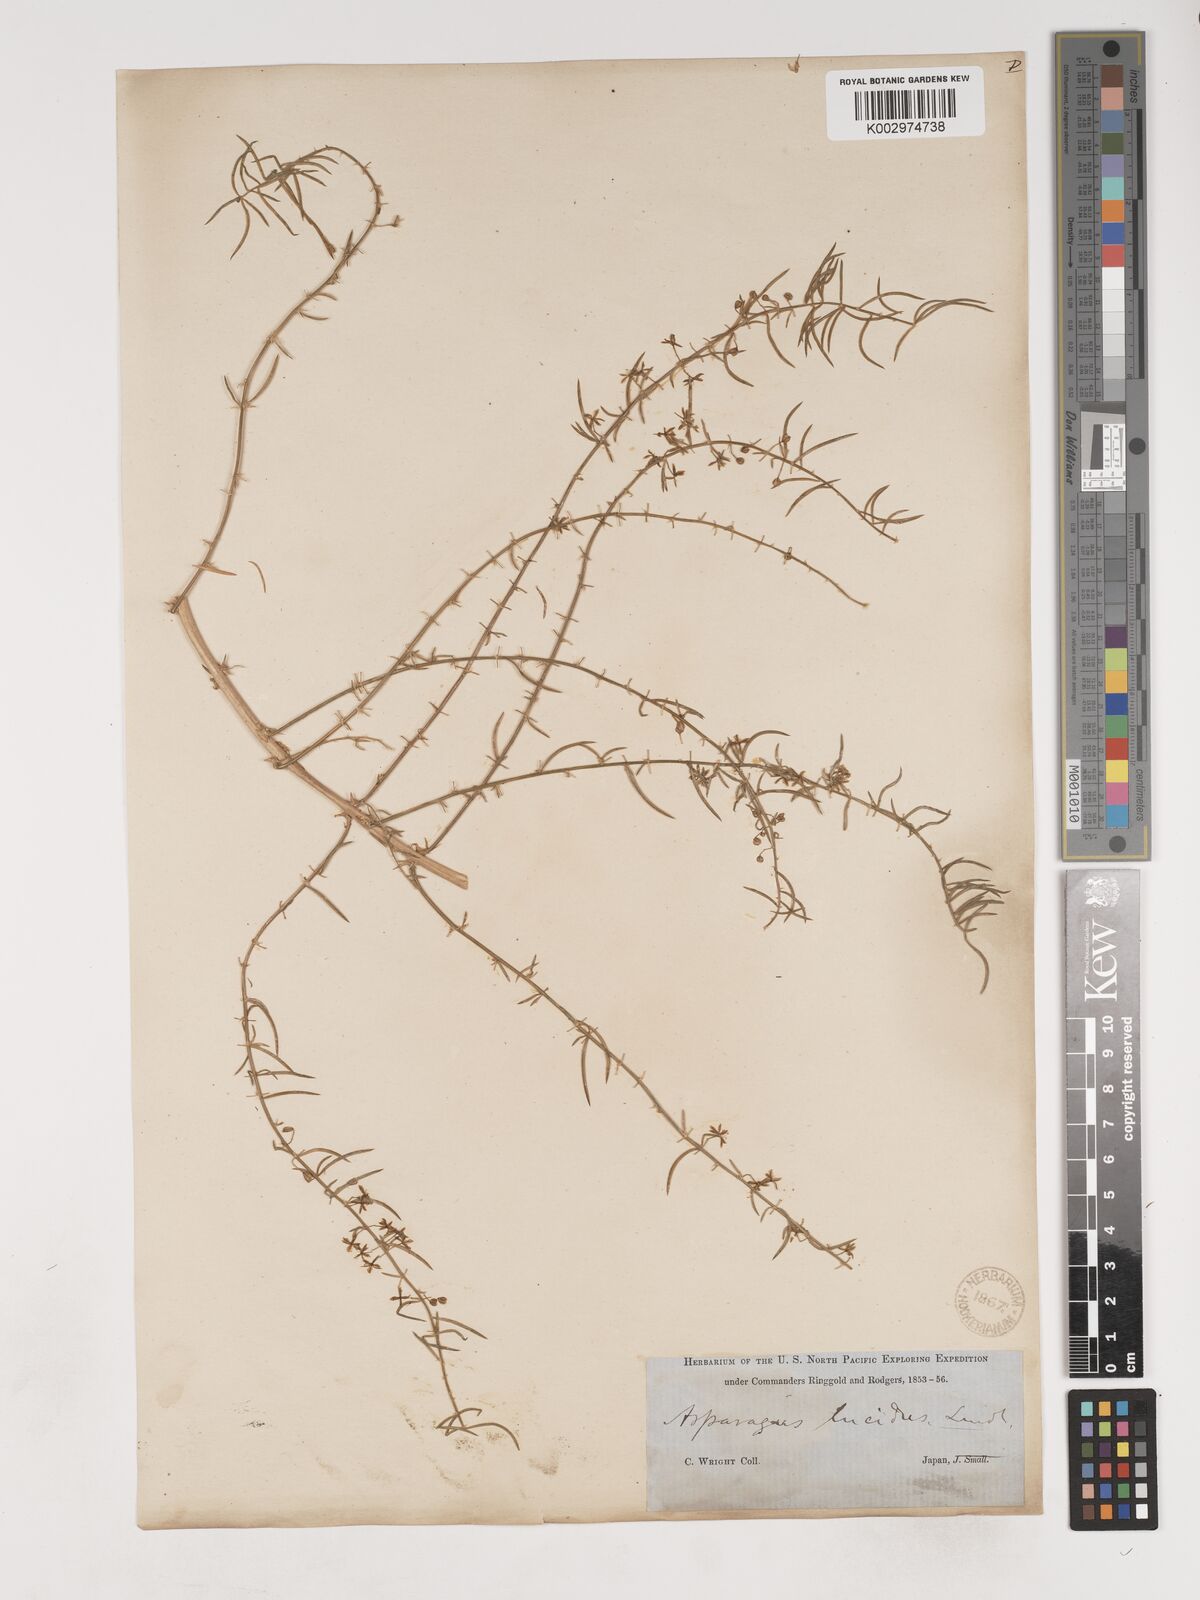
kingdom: Plantae
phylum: Tracheophyta
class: Liliopsida
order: Asparagales
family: Asparagaceae
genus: Asparagus
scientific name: Asparagus cochinchinensis
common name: Chinese asparagus
